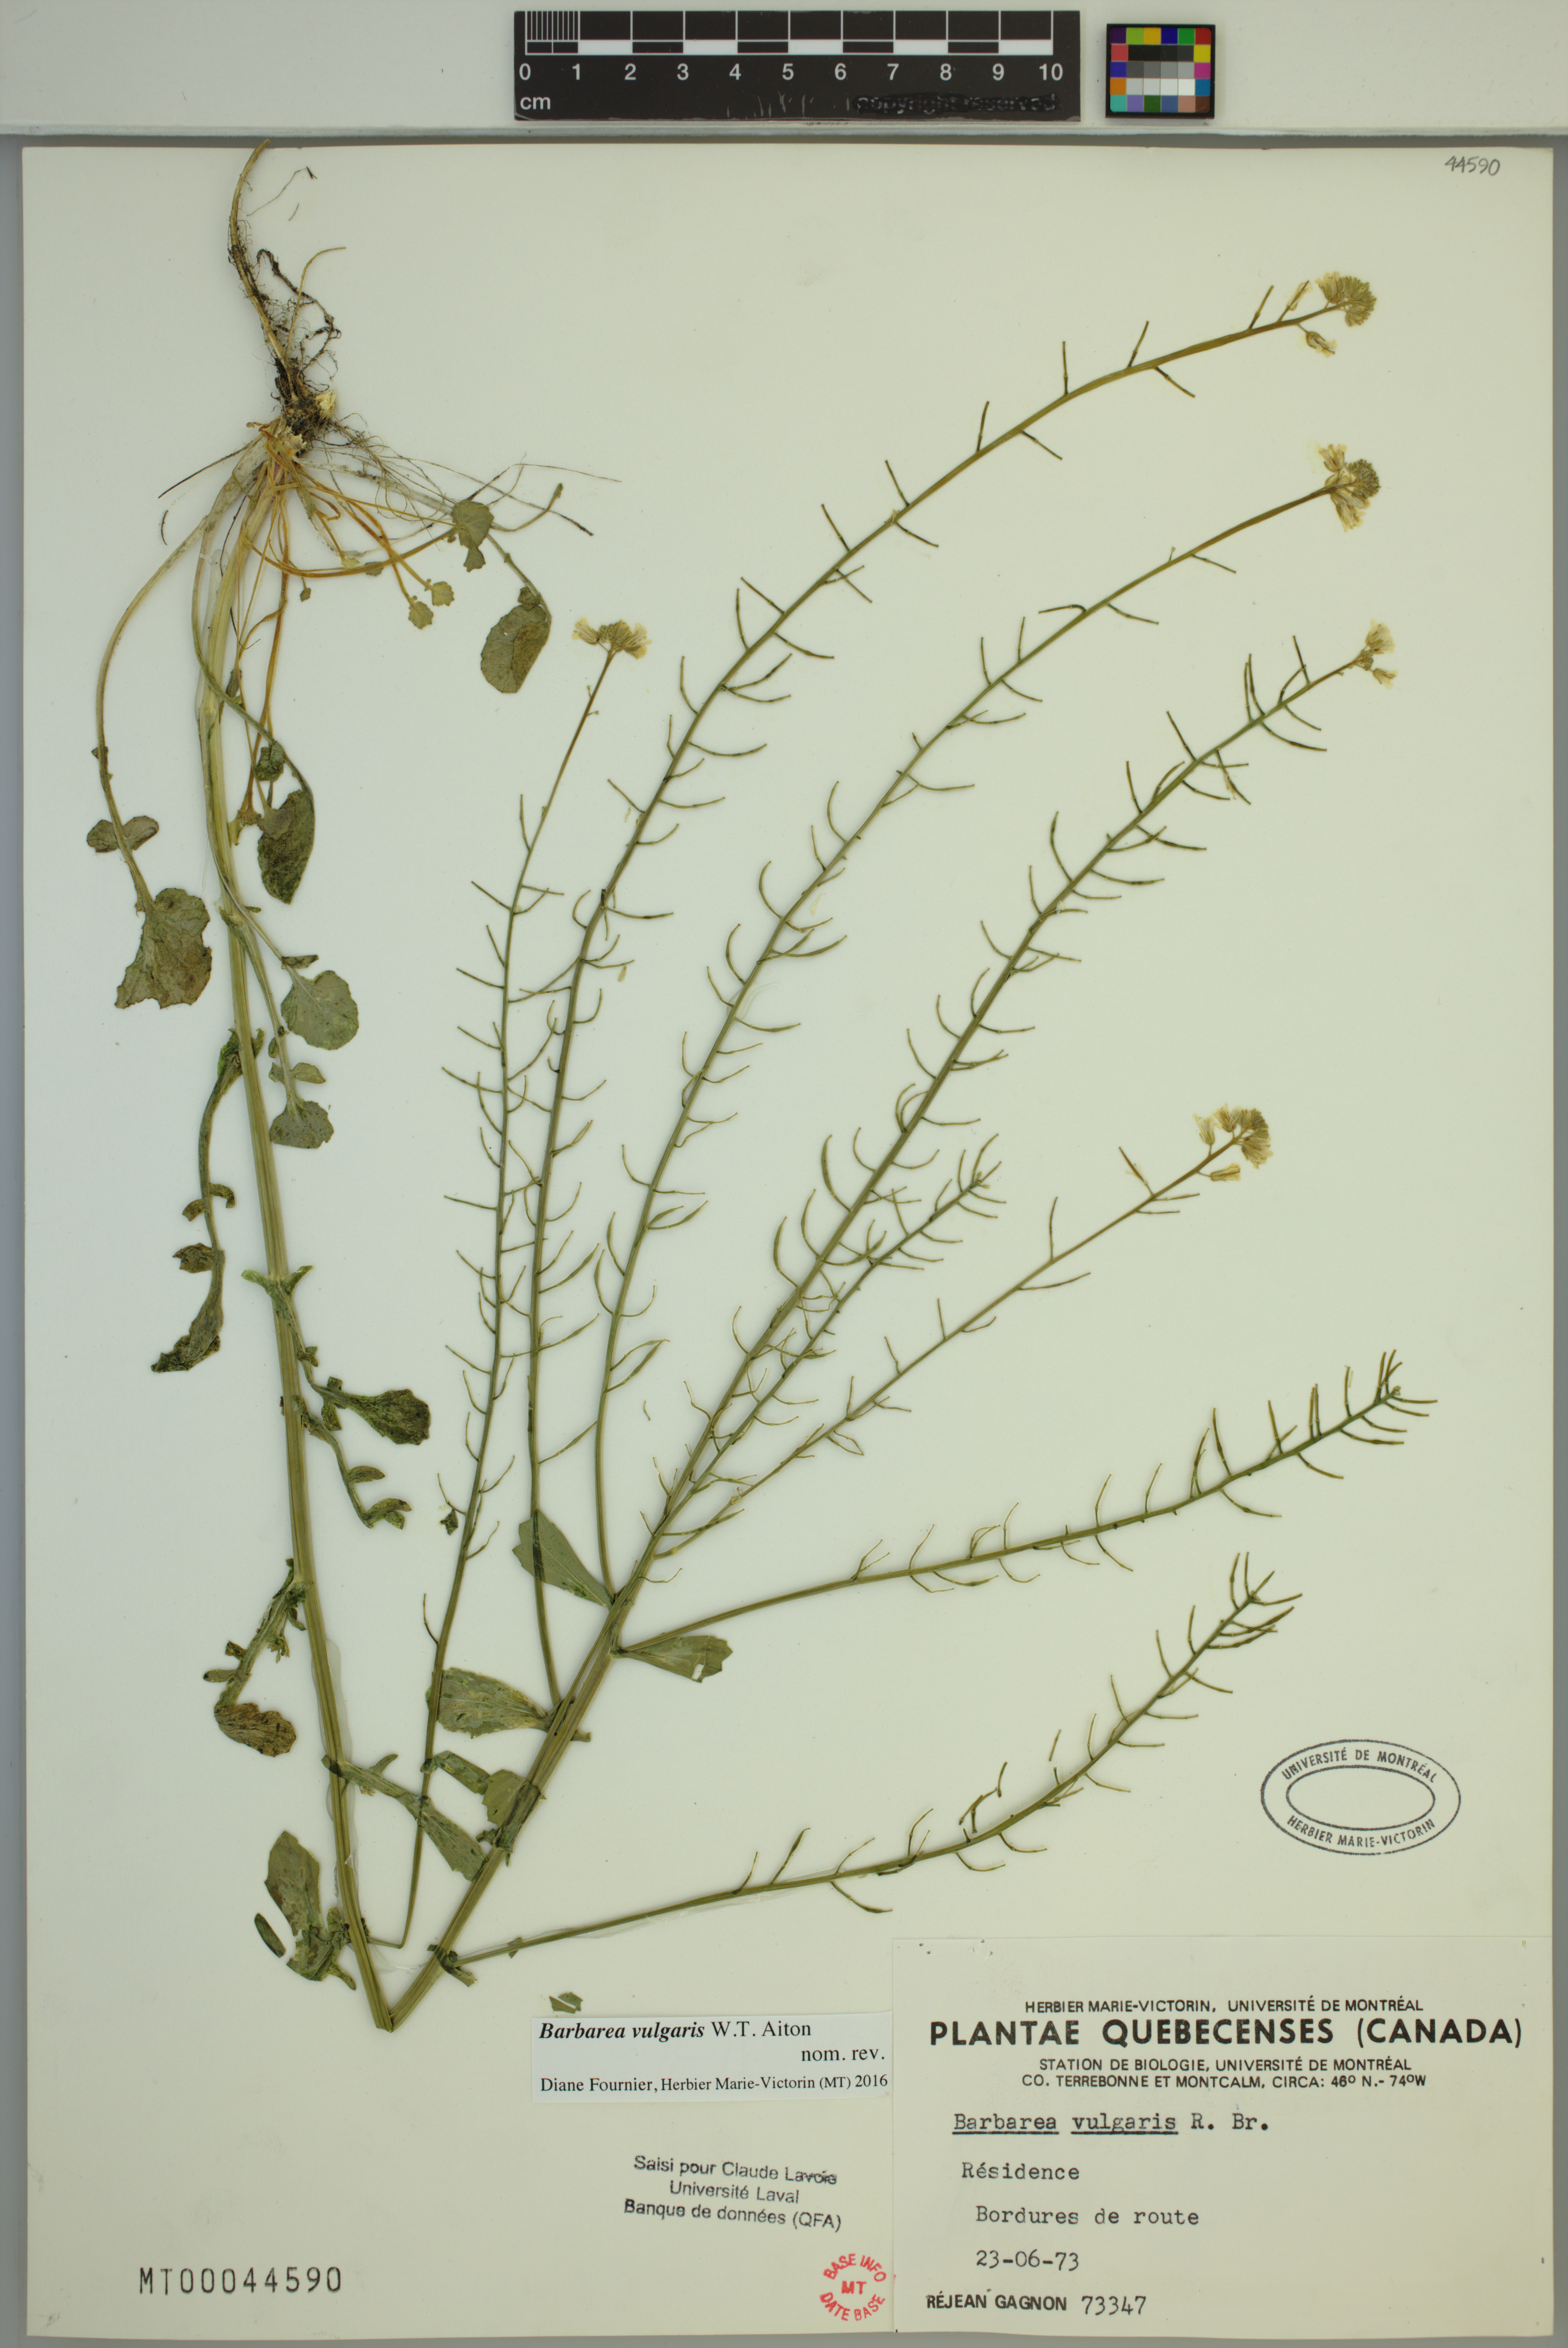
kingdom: Plantae
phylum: Tracheophyta
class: Magnoliopsida
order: Brassicales
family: Brassicaceae
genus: Barbarea
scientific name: Barbarea vulgaris
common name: Cressy-greens
